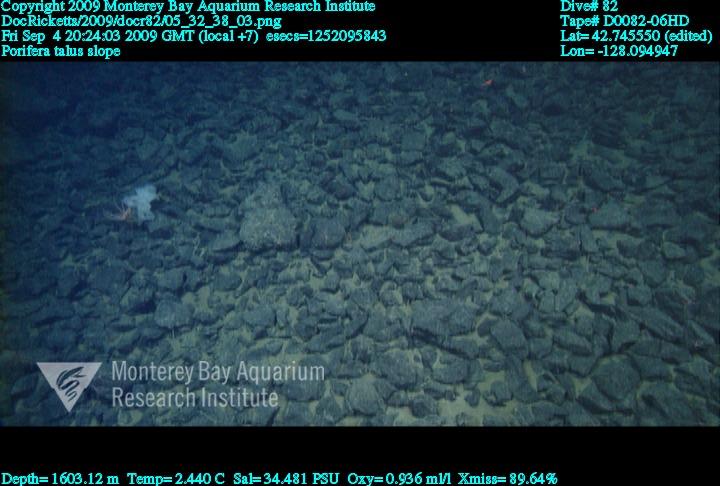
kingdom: Animalia
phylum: Porifera
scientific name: Porifera
